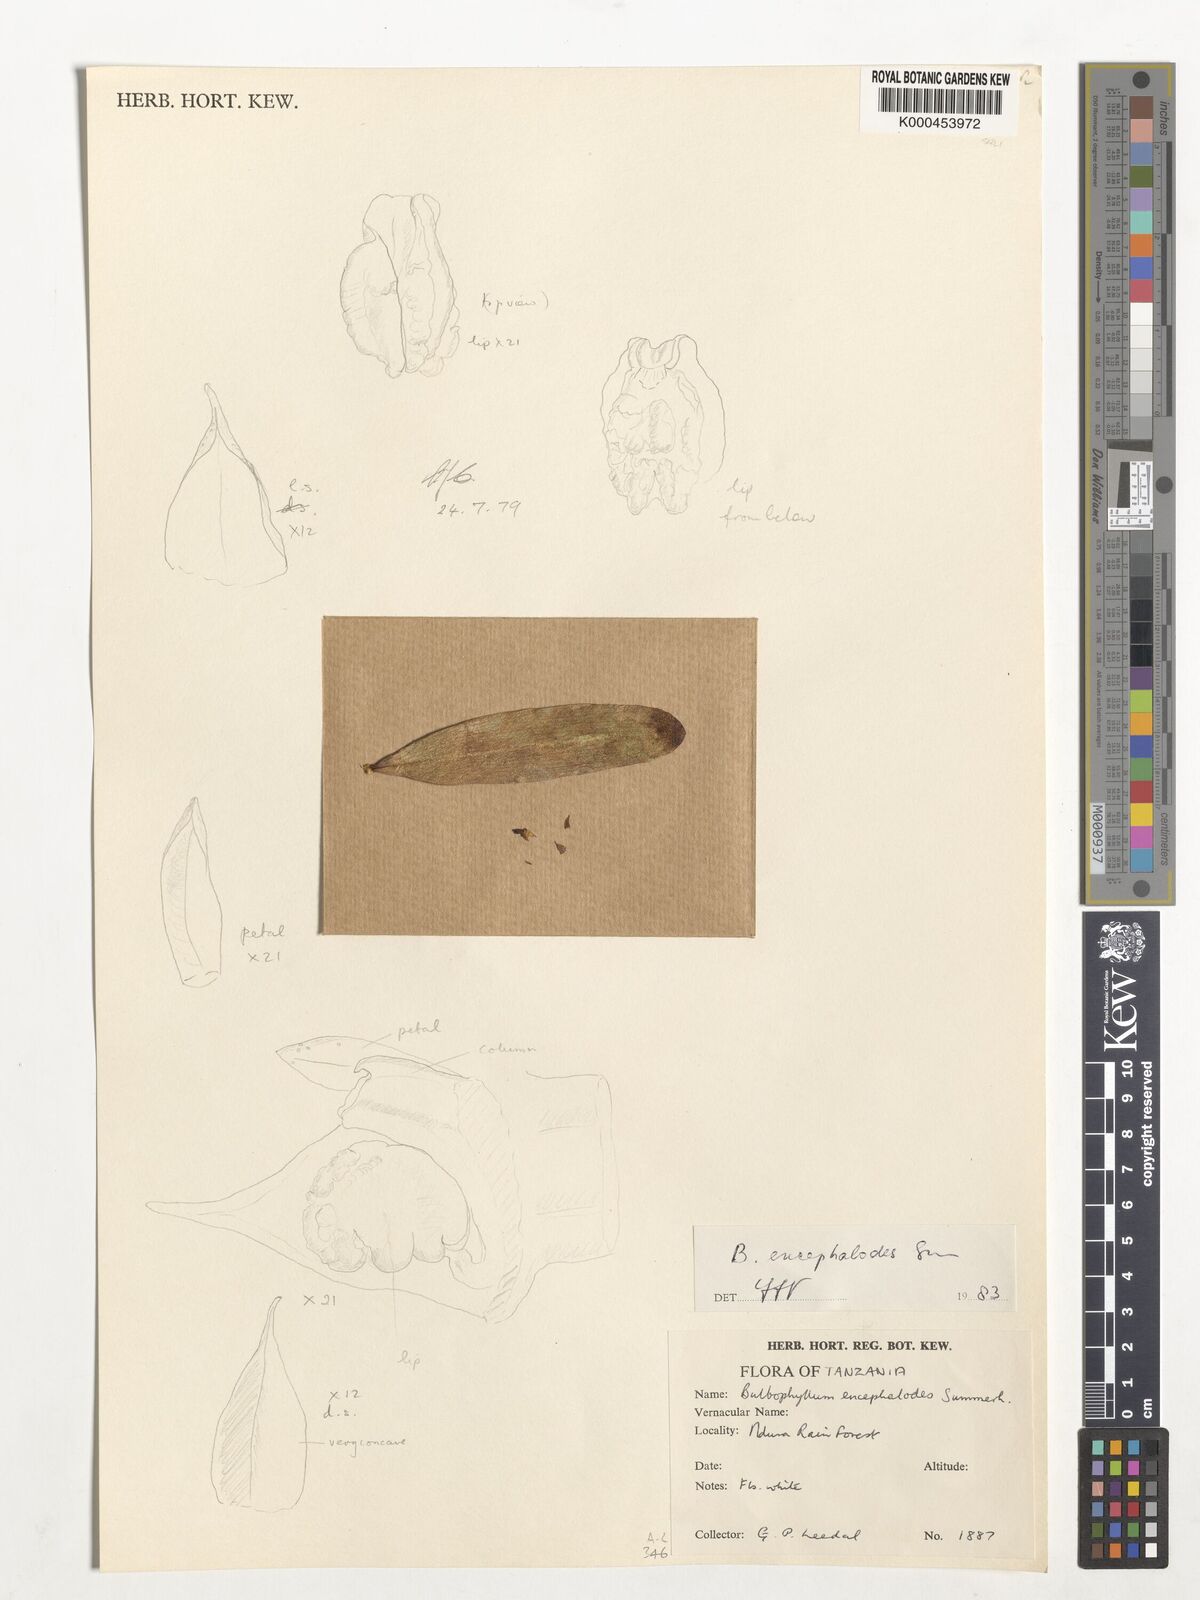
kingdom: Plantae
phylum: Tracheophyta
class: Liliopsida
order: Asparagales
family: Orchidaceae
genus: Bulbophyllum
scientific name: Bulbophyllum encephalodes
